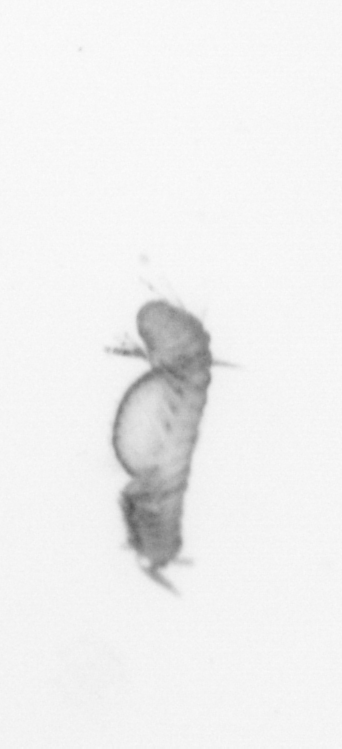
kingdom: Animalia
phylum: Annelida
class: Polychaeta
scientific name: Polychaeta
